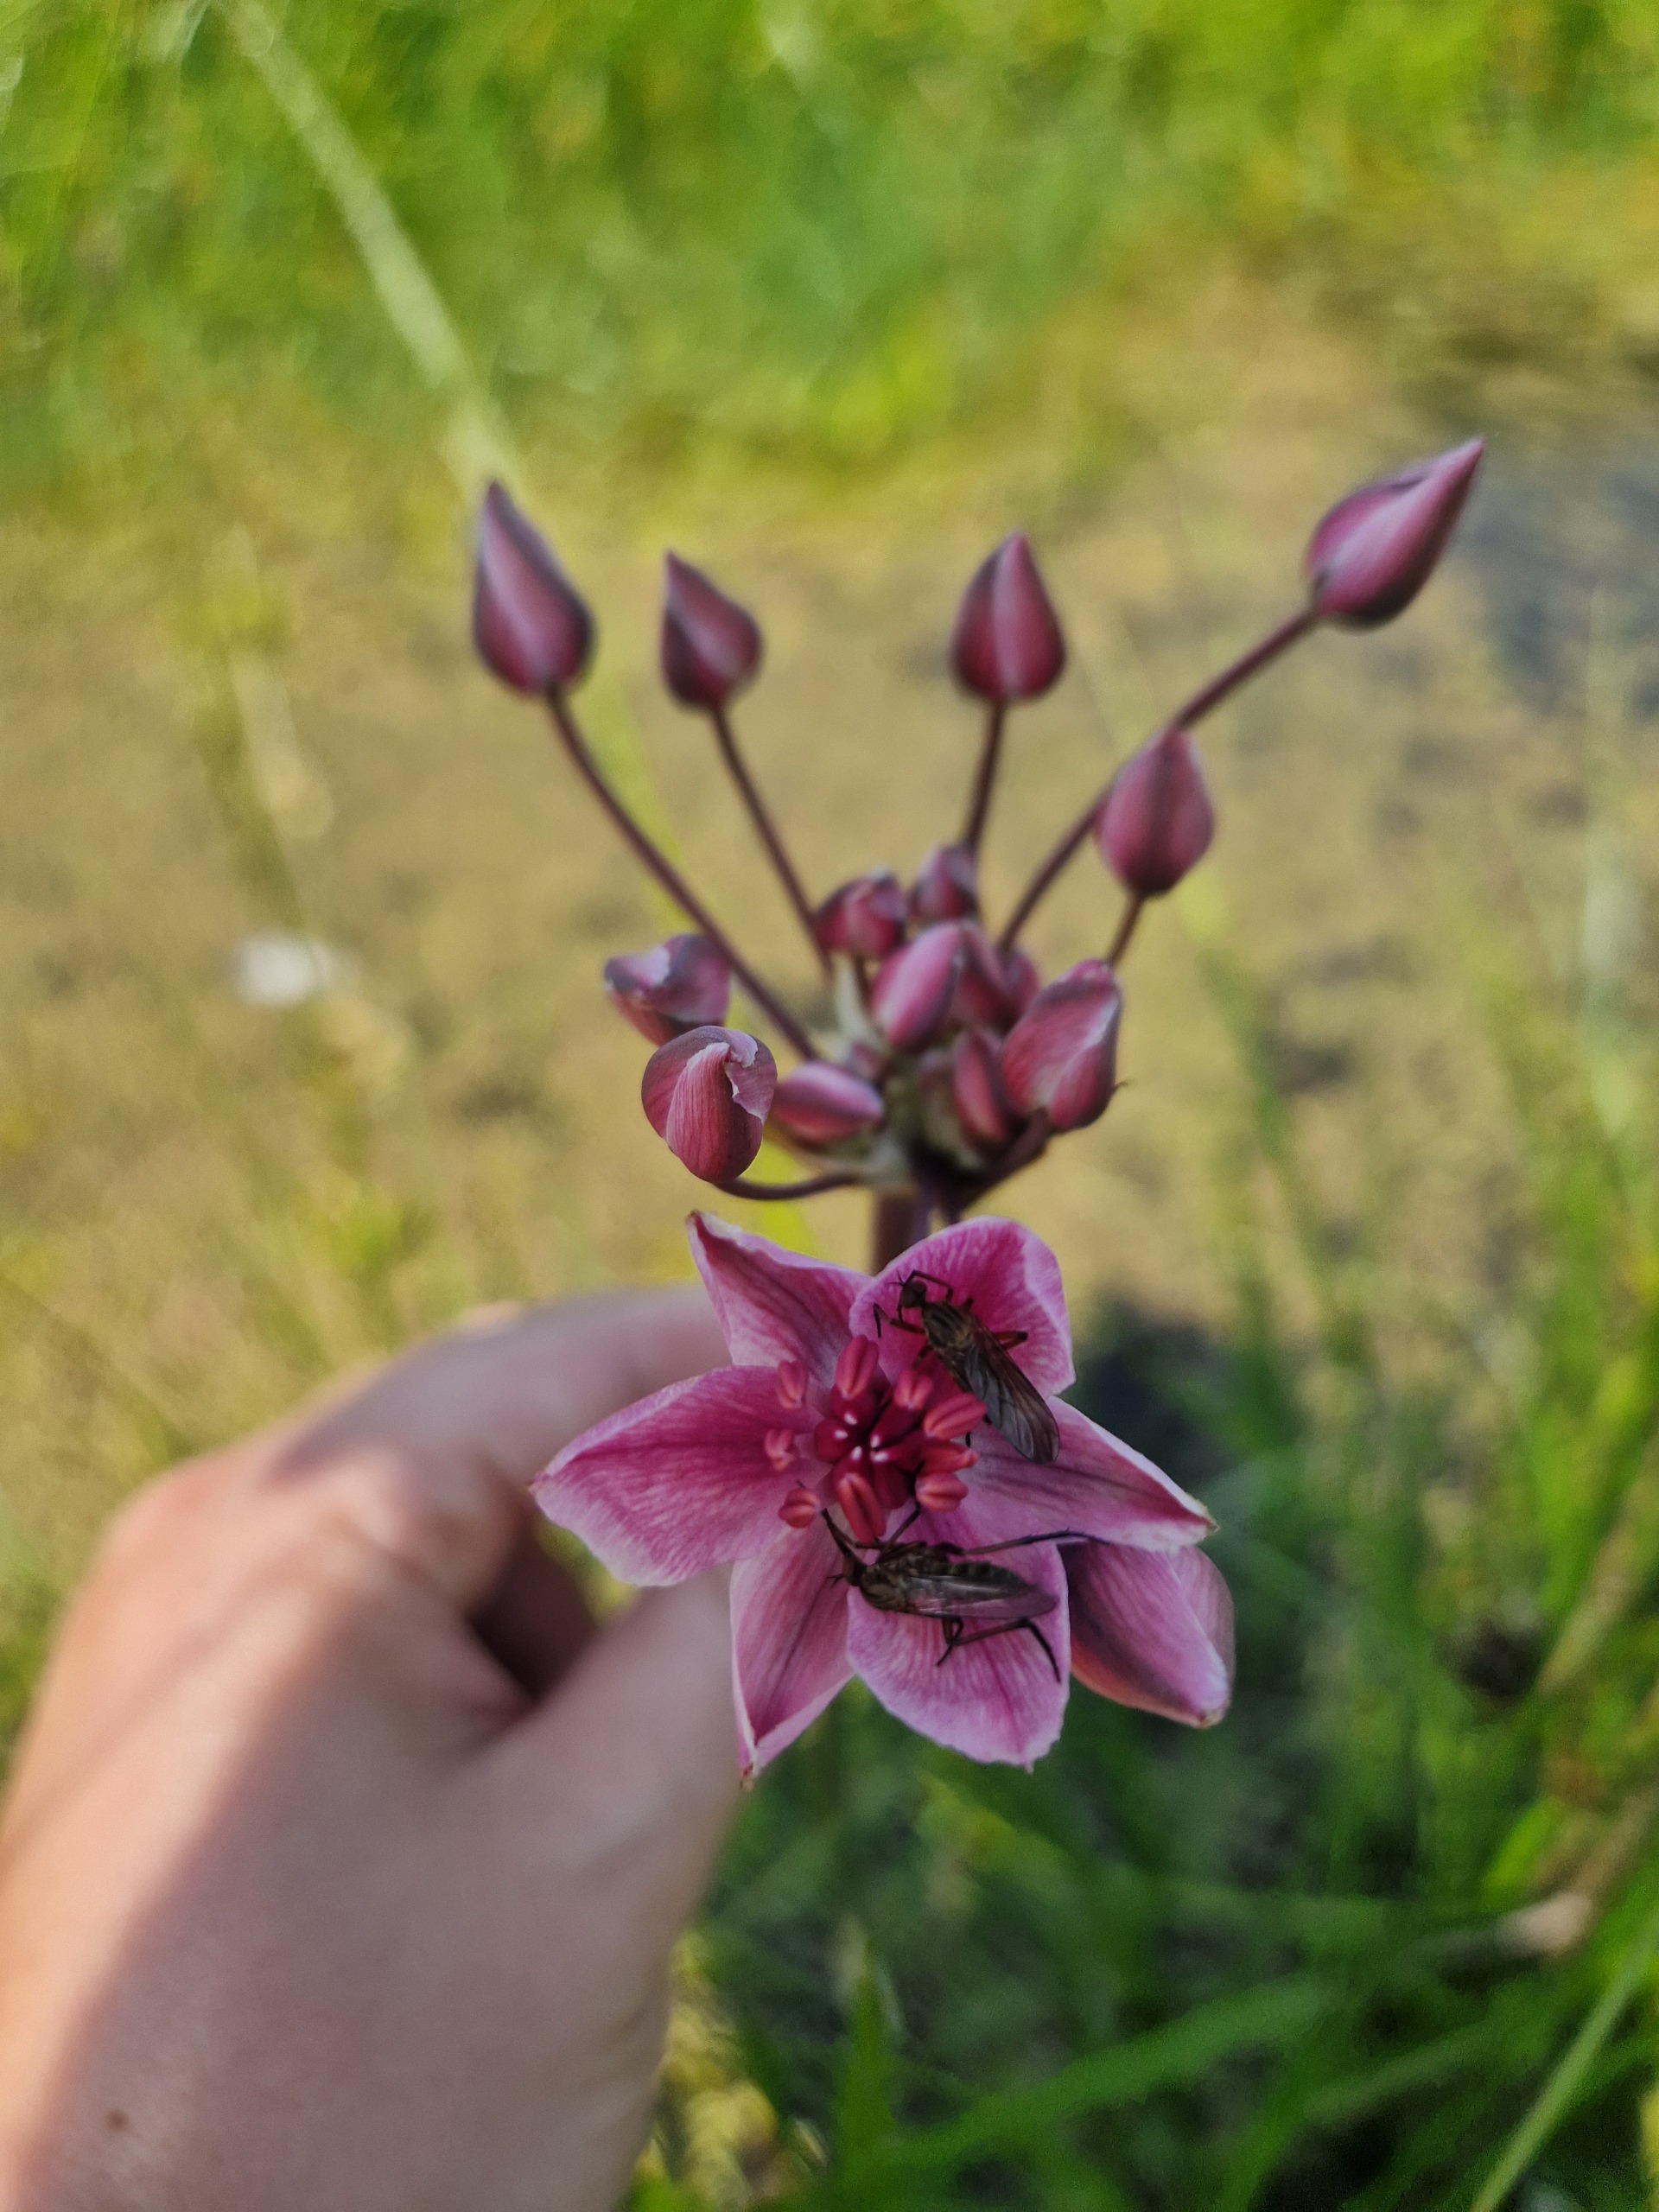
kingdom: Plantae
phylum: Tracheophyta
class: Liliopsida
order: Alismatales
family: Butomaceae
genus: Butomus
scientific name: Butomus umbellatus
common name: Brudelys
